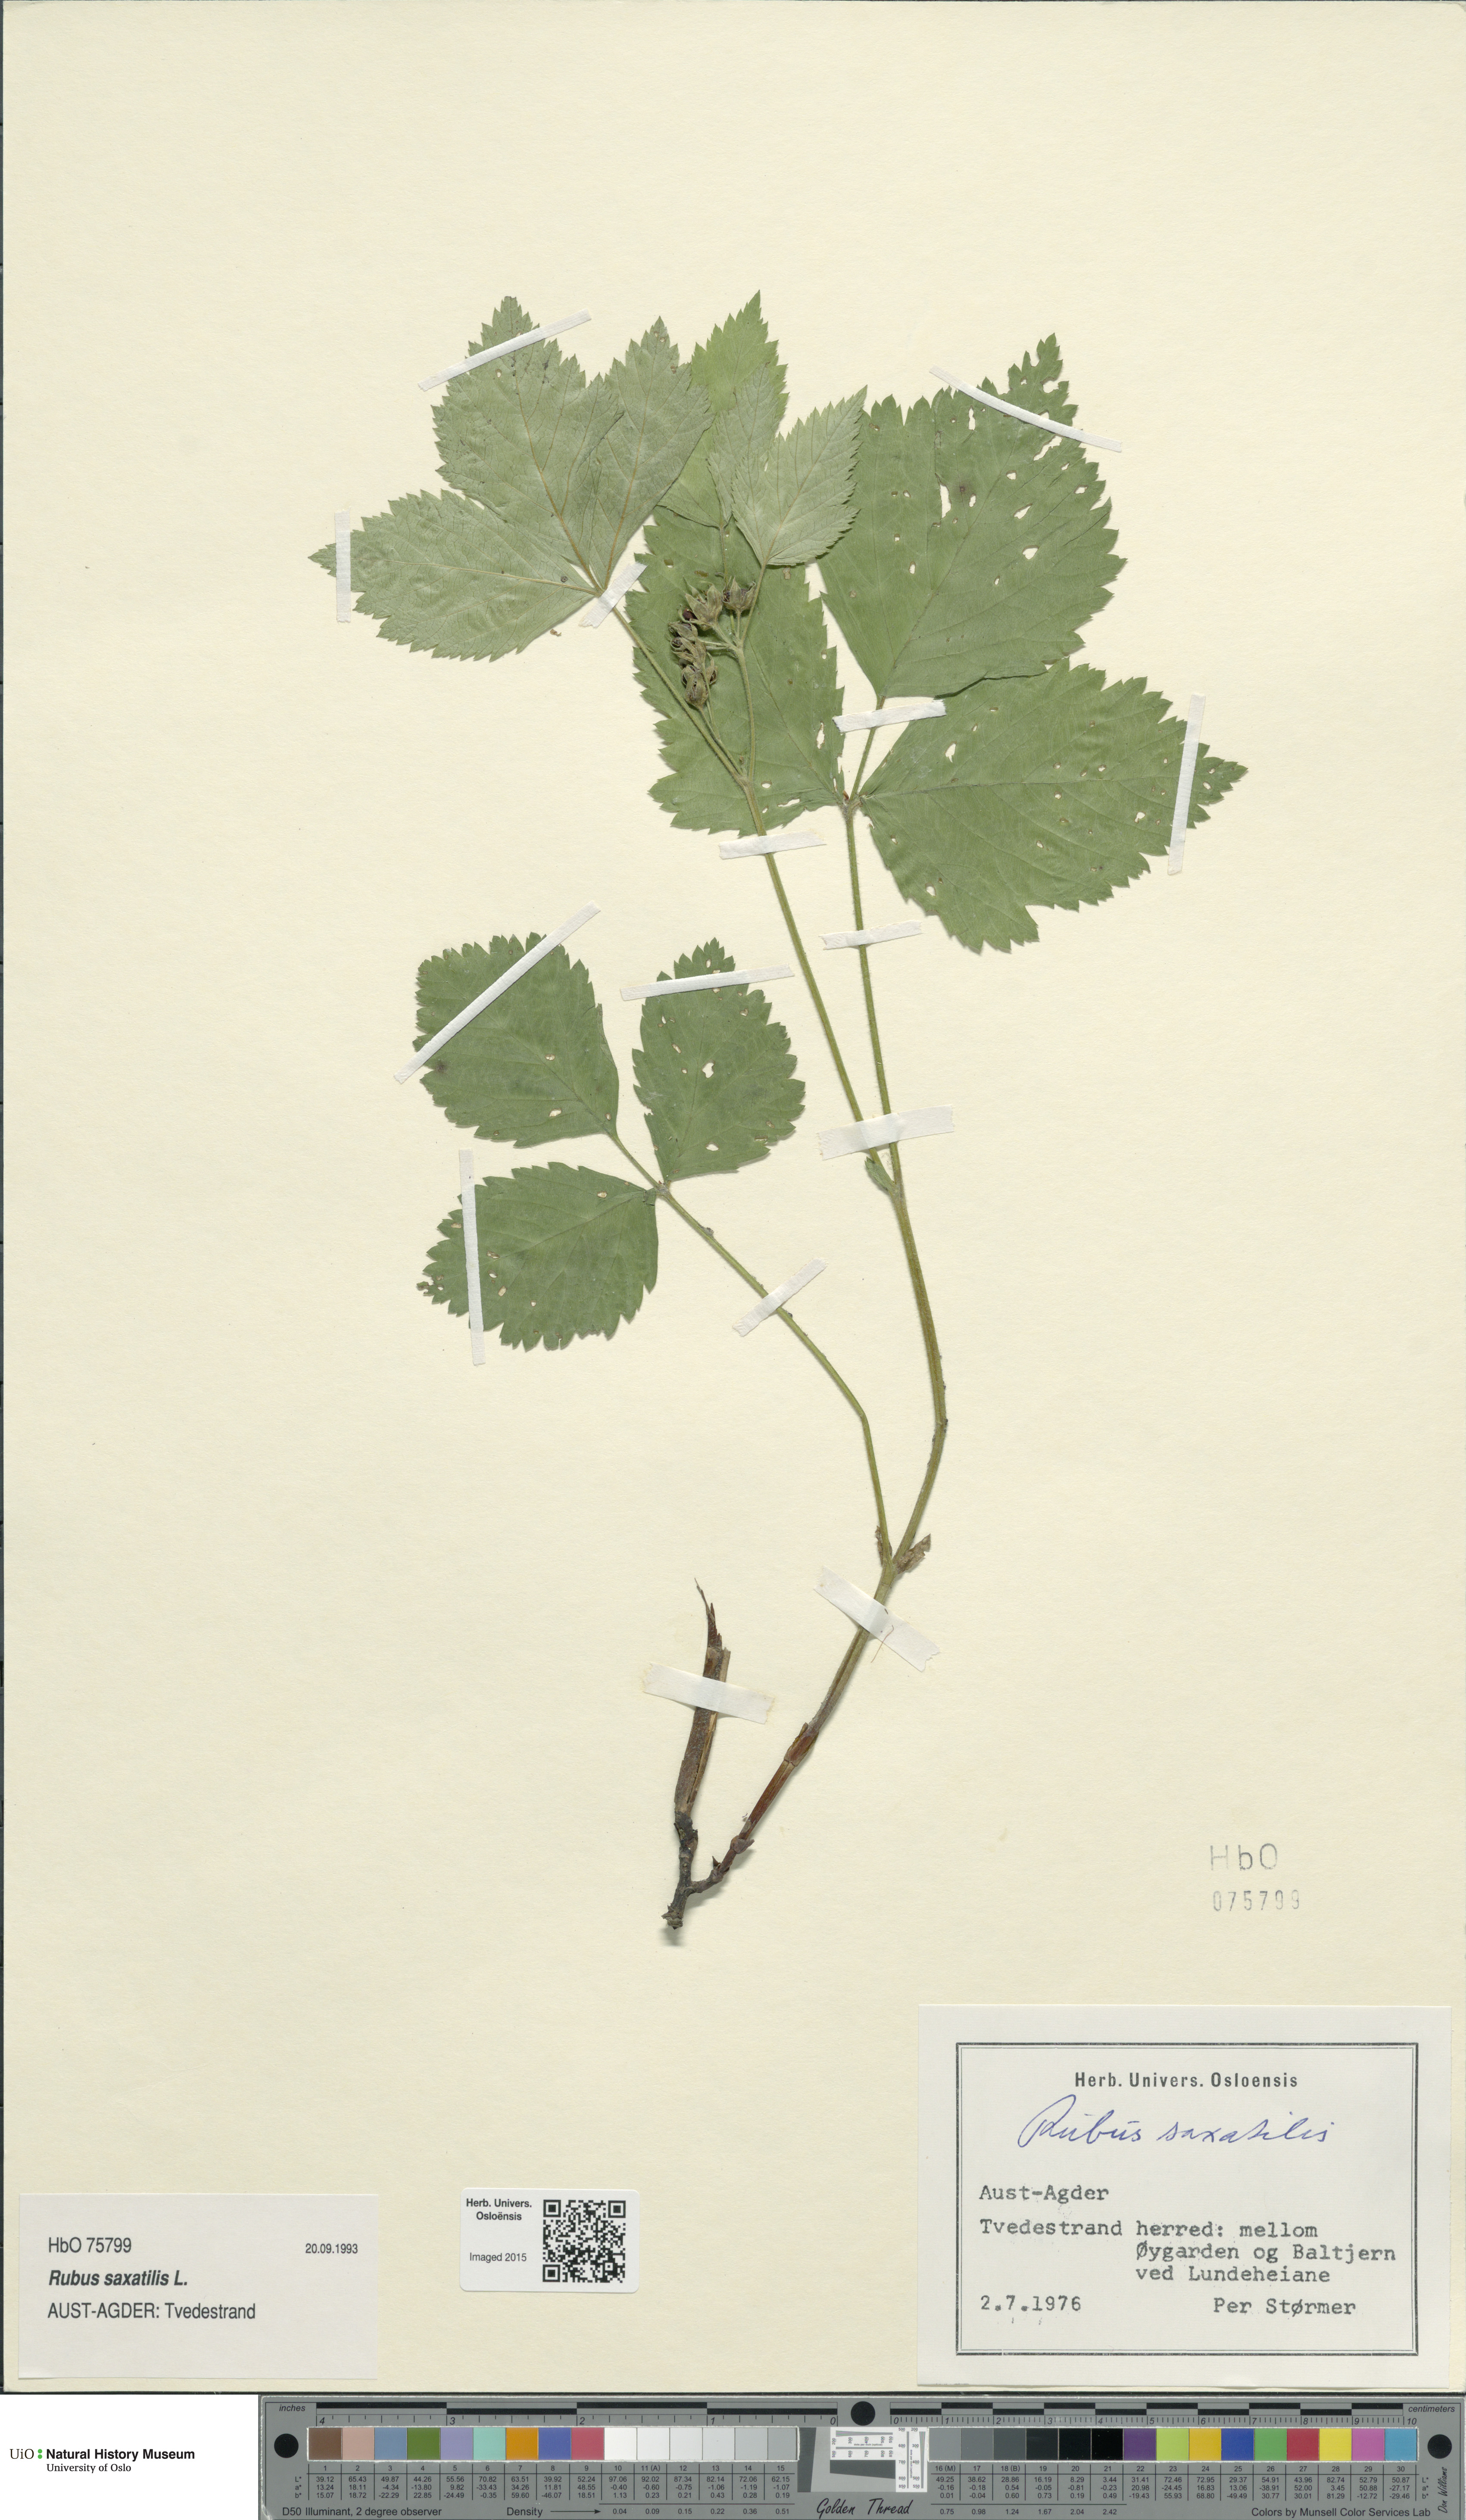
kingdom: Plantae
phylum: Tracheophyta
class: Magnoliopsida
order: Rosales
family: Rosaceae
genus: Rubus
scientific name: Rubus saxatilis
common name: Stone bramble
